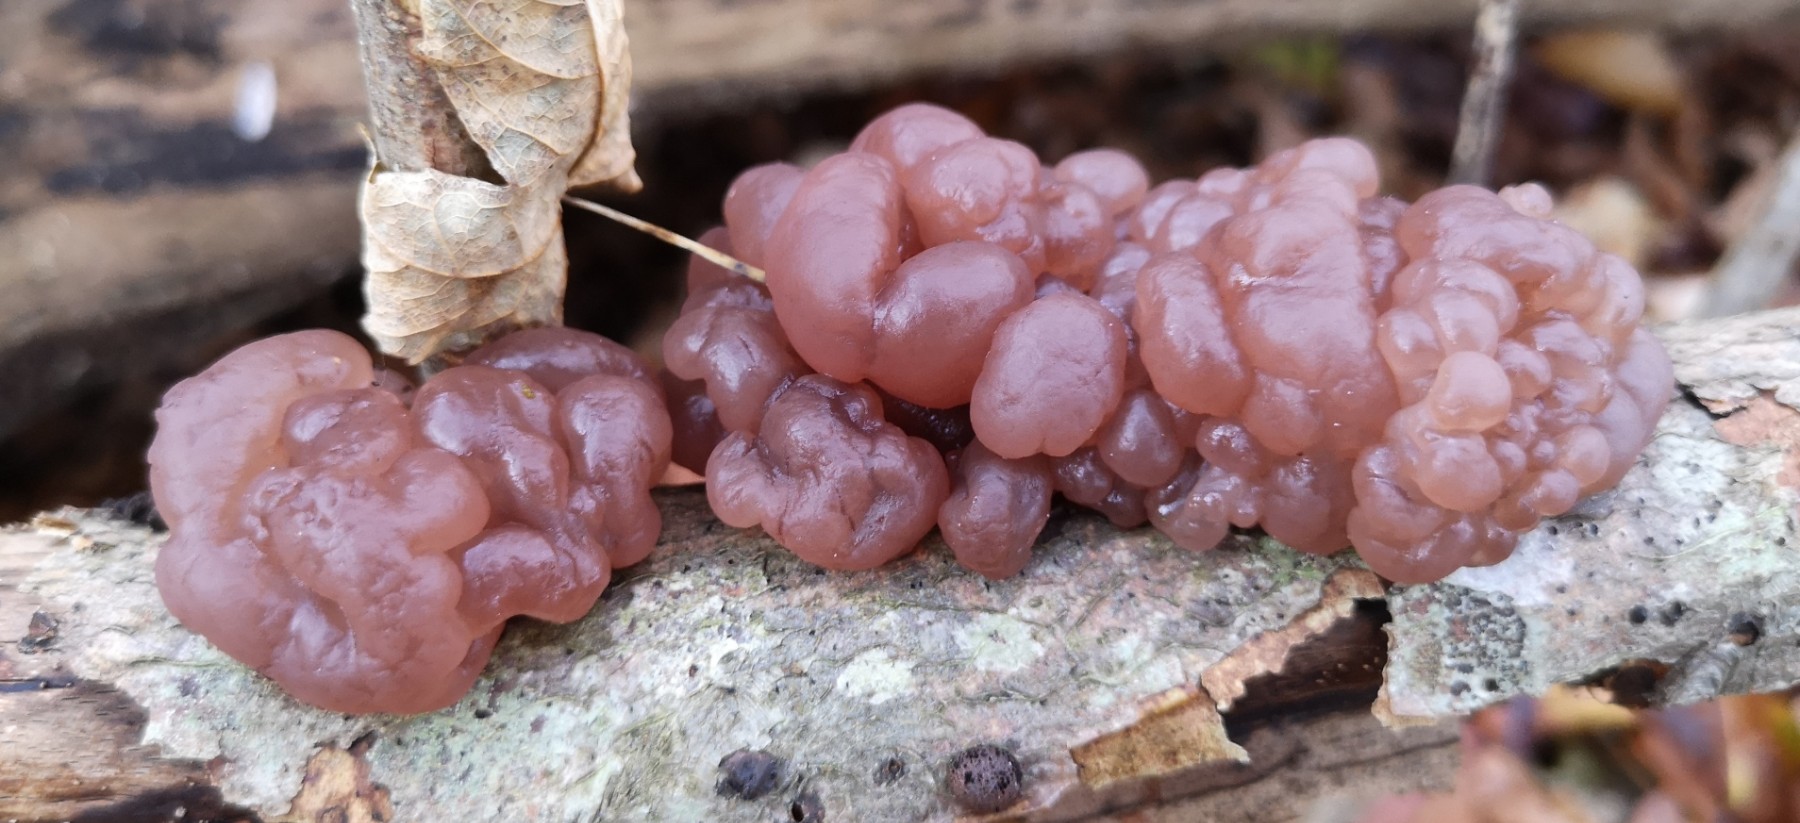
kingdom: Fungi
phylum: Ascomycota
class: Leotiomycetes
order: Helotiales
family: Gelatinodiscaceae
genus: Ascotremella
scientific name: Ascotremella faginea
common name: hjerne-bævreskive
